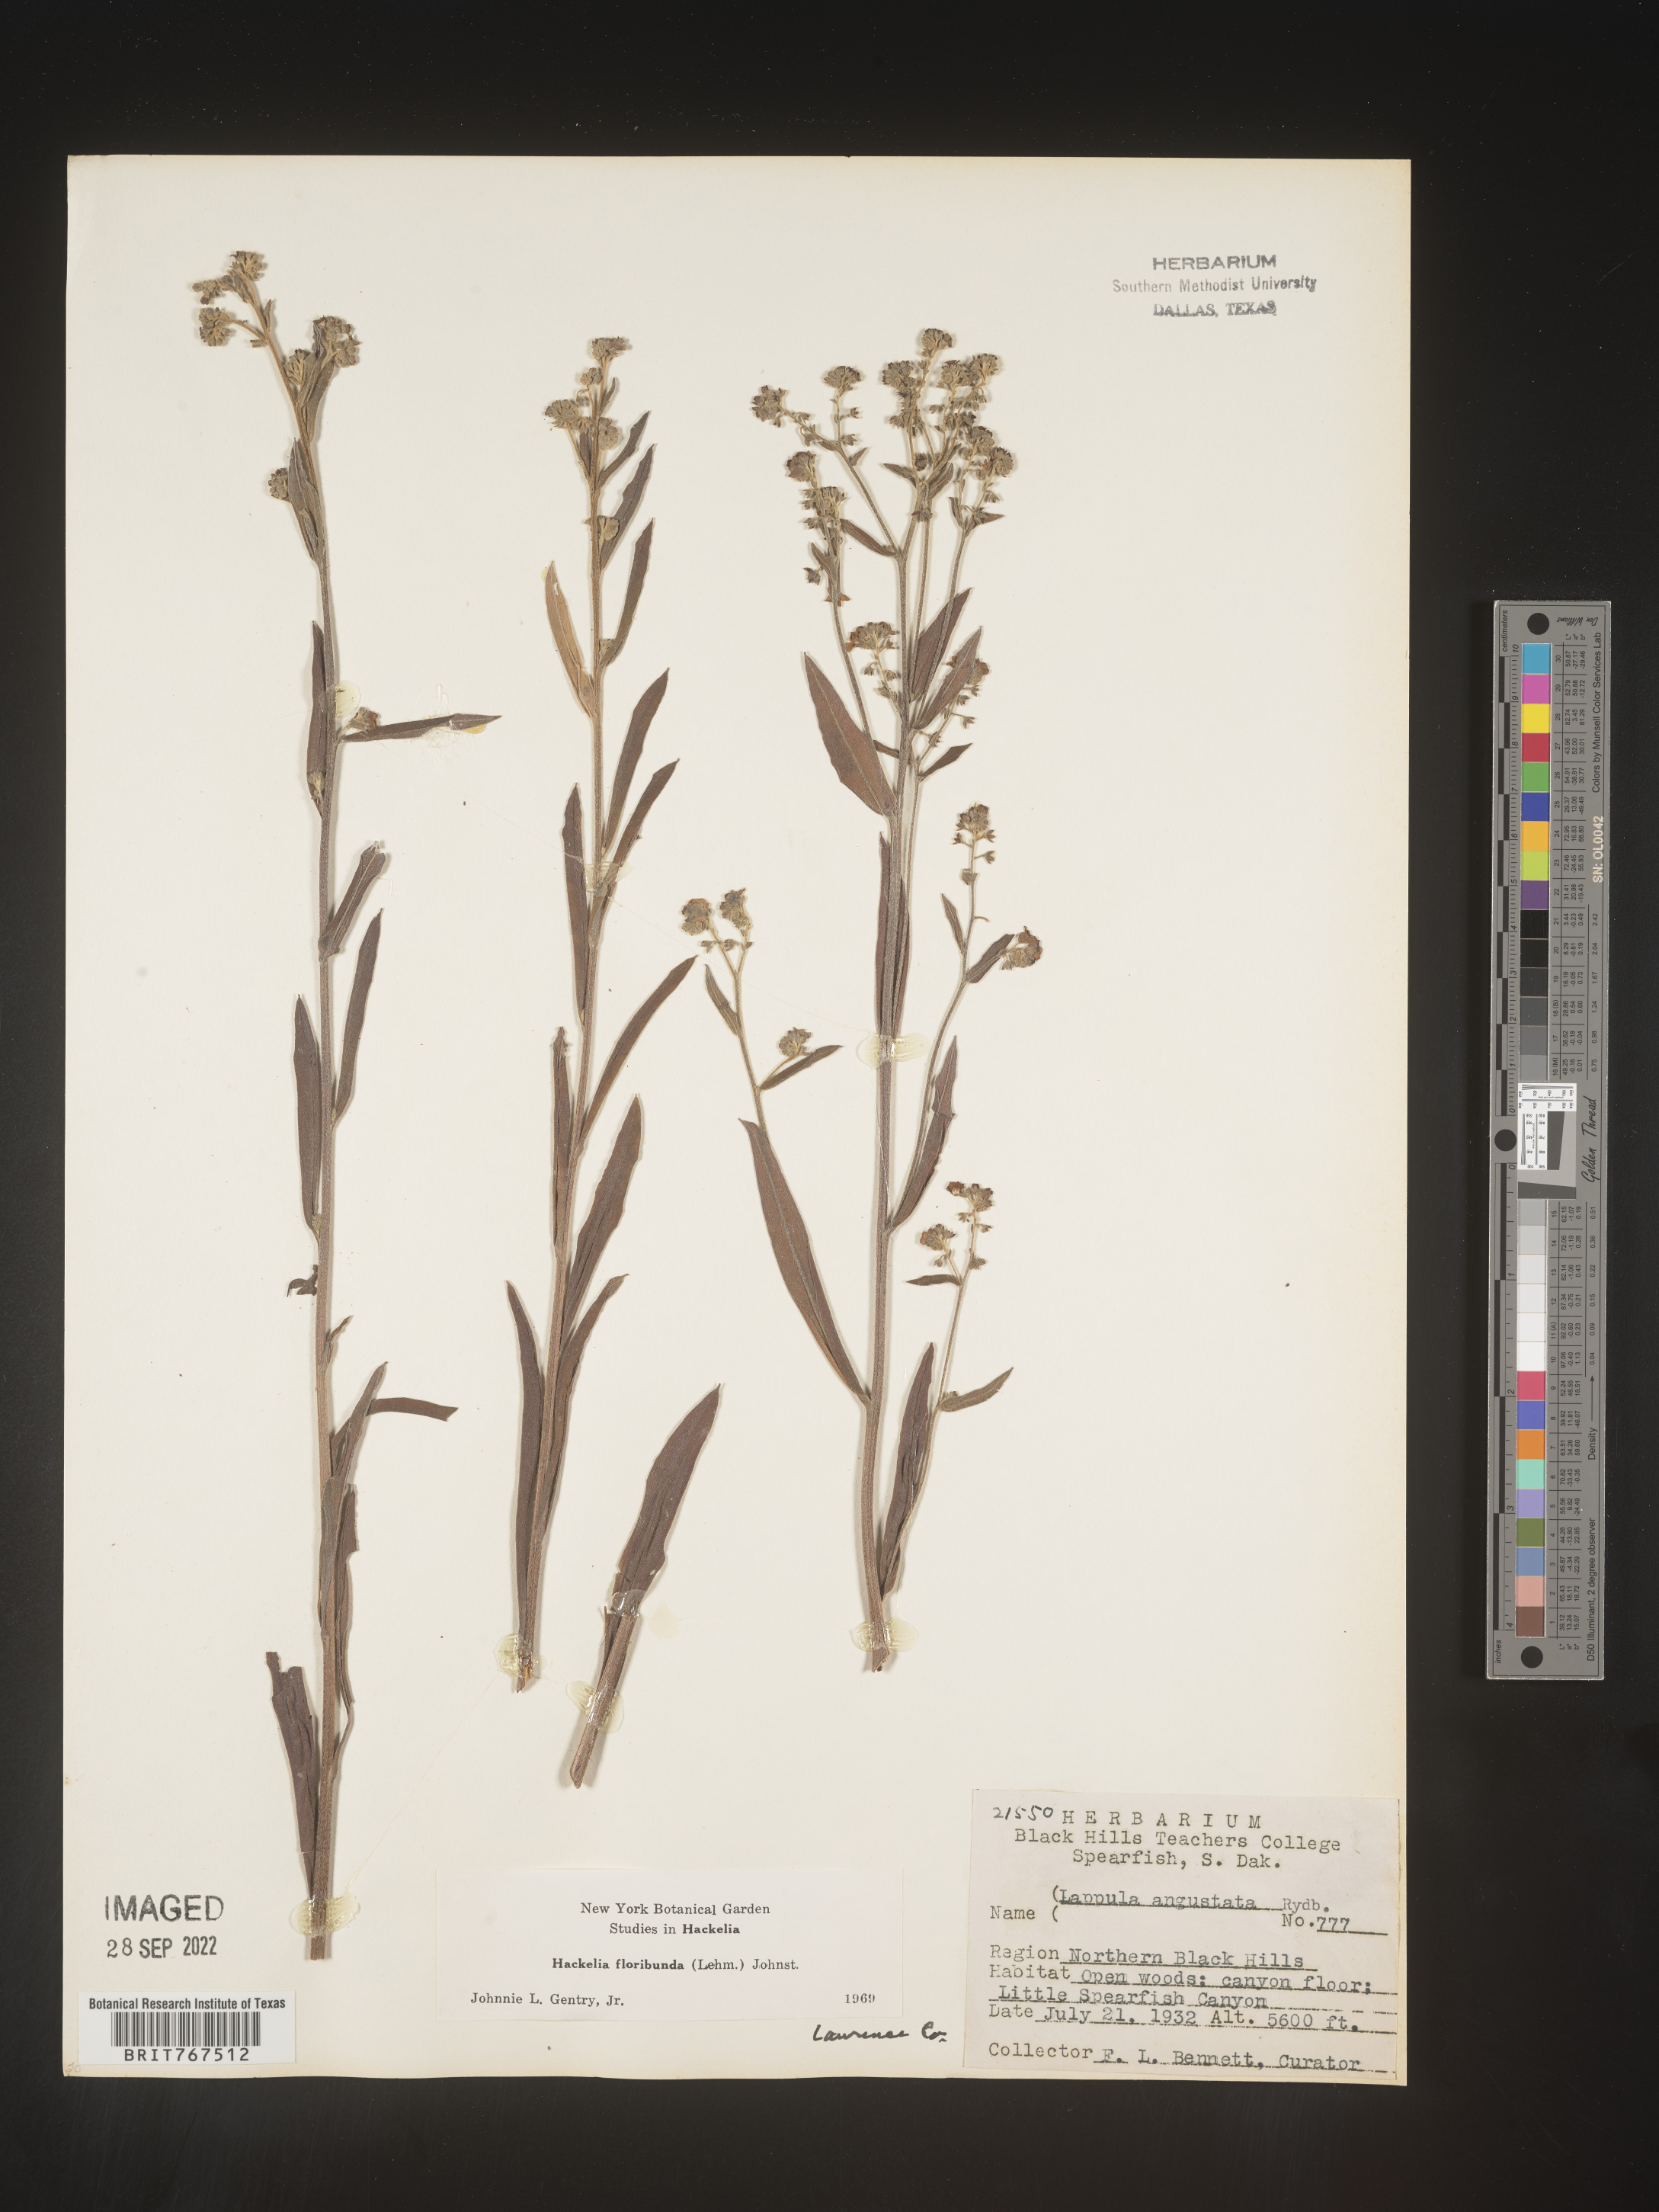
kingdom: Plantae
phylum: Tracheophyta
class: Magnoliopsida
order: Boraginales
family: Boraginaceae
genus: Hackelia
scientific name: Hackelia floribunda
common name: Large-flowered stickseed
